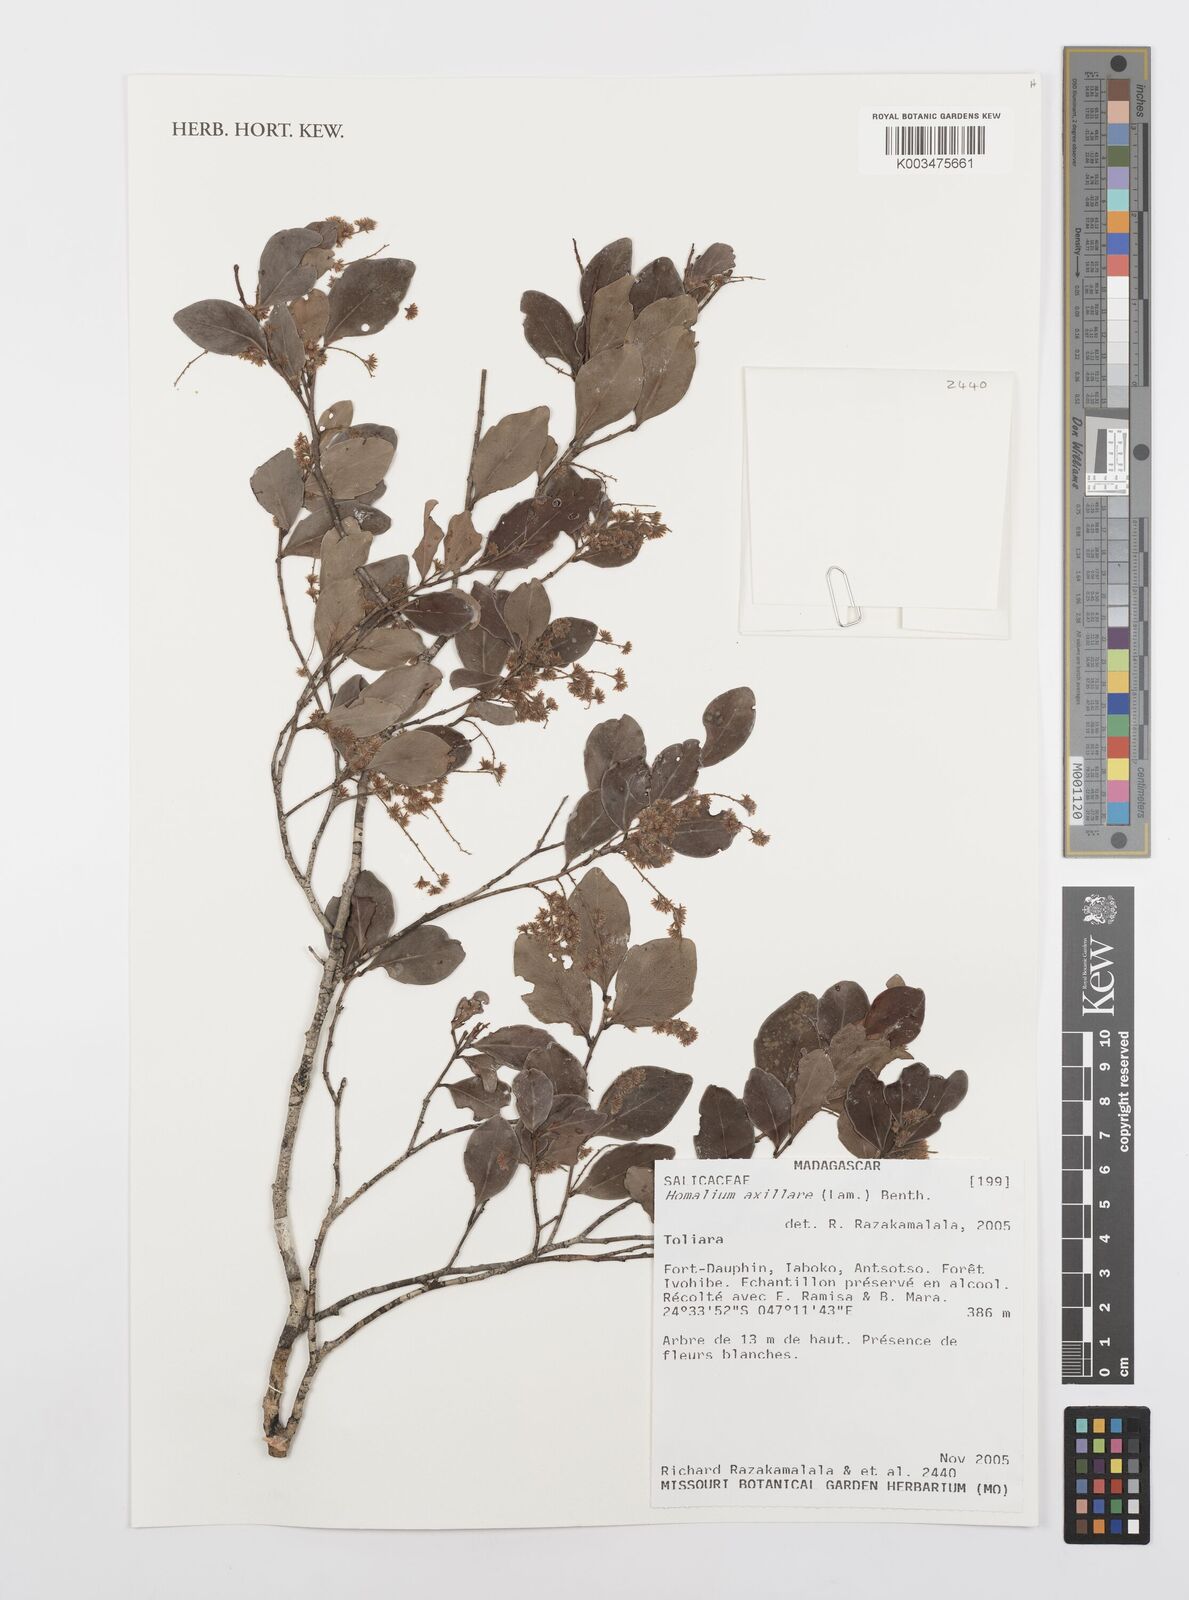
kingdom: Plantae
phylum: Tracheophyta
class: Magnoliopsida
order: Malpighiales
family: Salicaceae
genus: Homalium
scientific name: Homalium axillare
